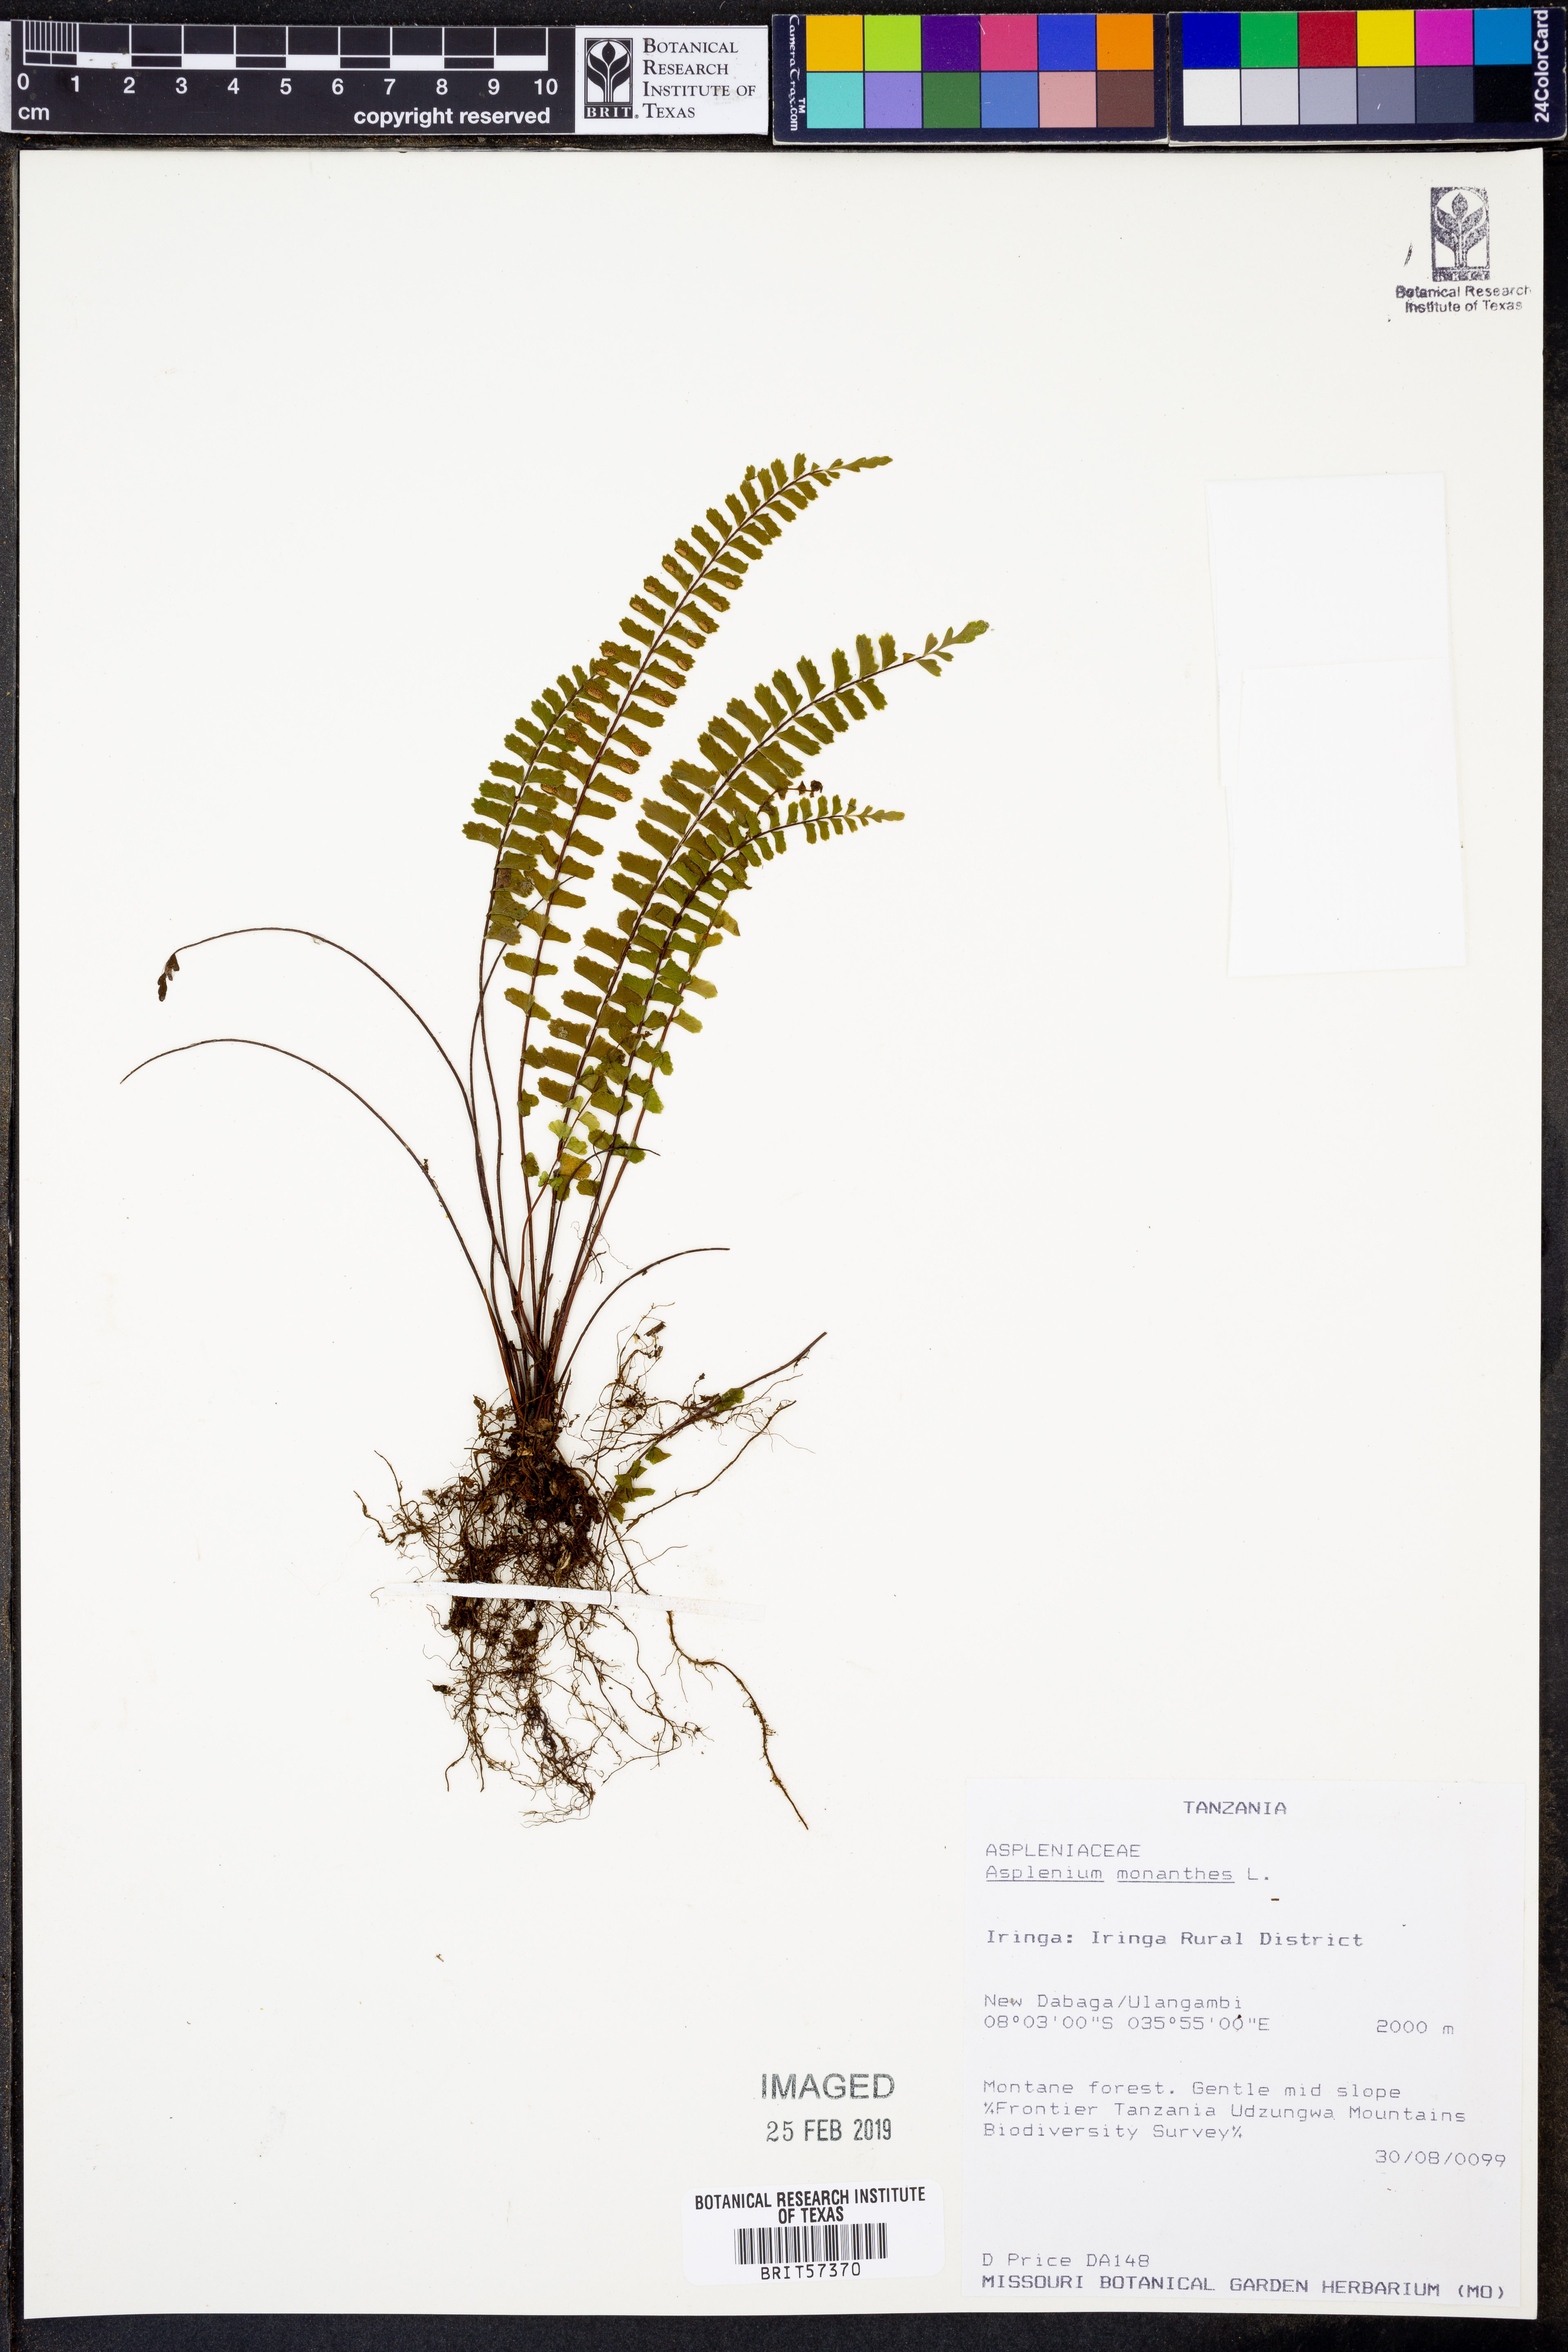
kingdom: Plantae
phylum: Tracheophyta
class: Polypodiopsida
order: Polypodiales
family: Aspleniaceae
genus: Asplenium
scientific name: Asplenium monanthes
